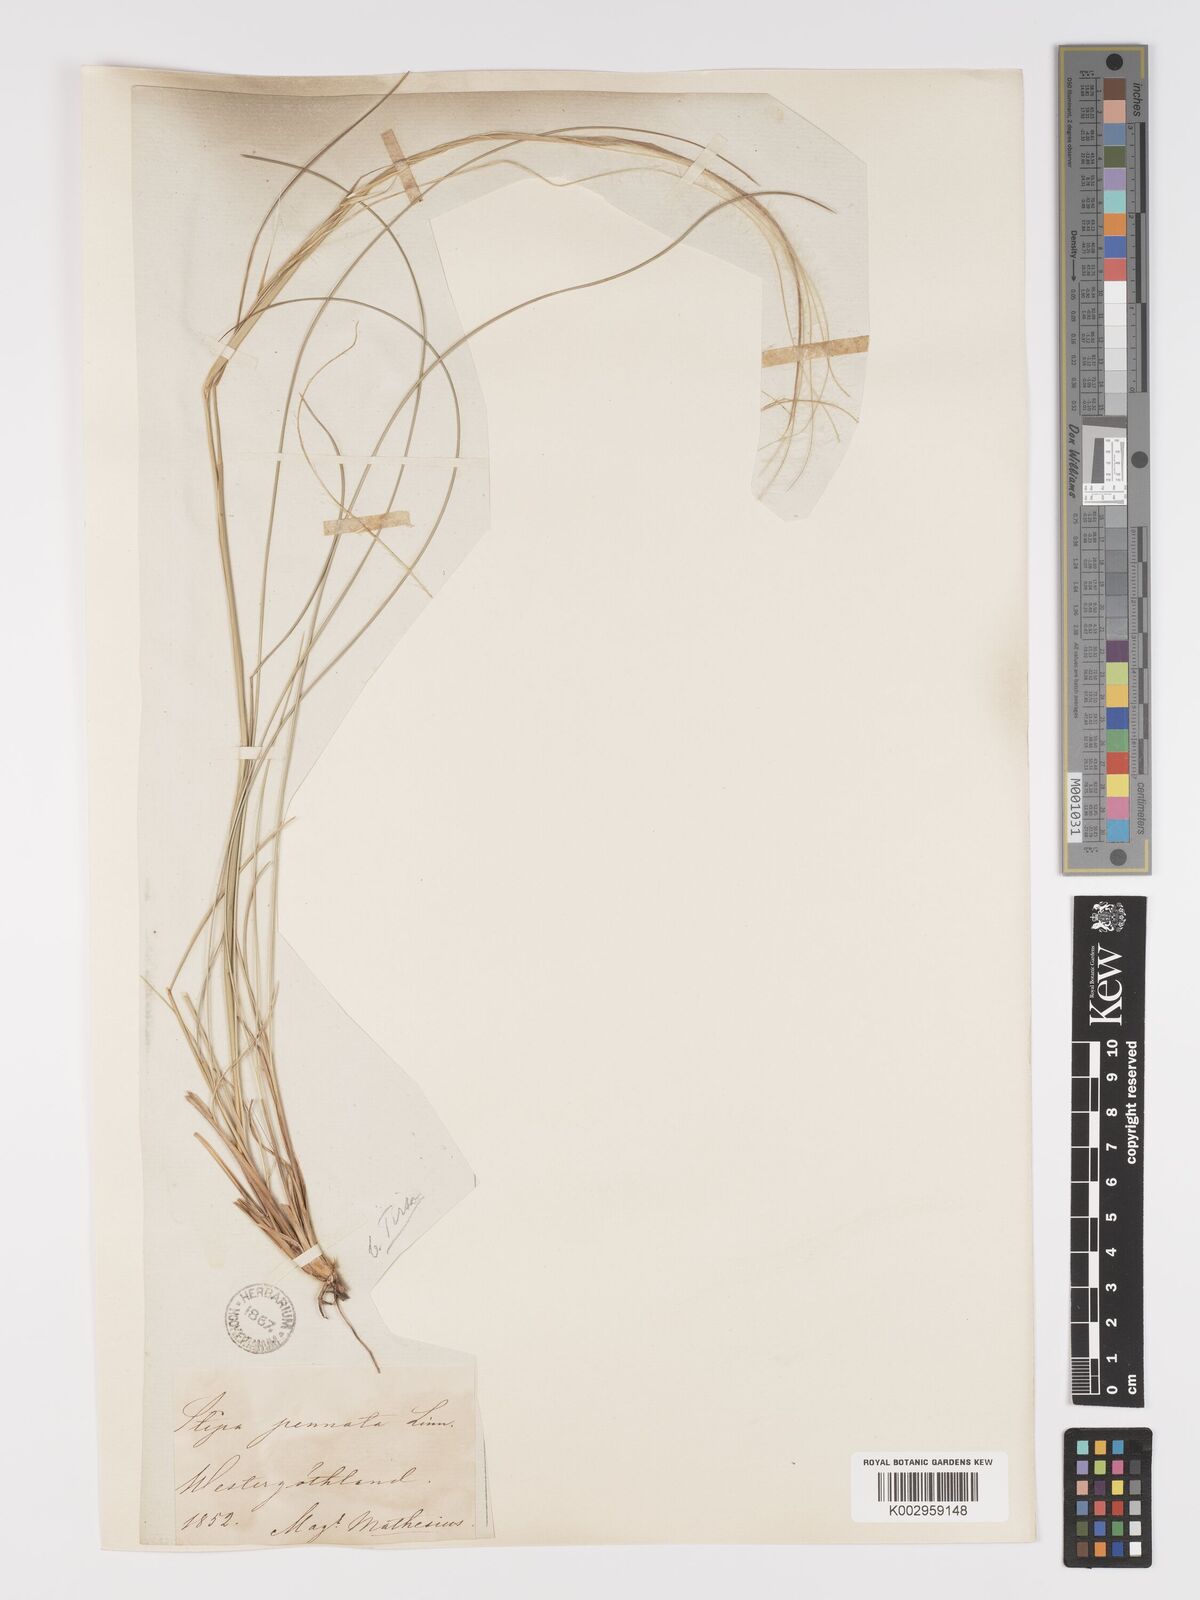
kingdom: Plantae
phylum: Tracheophyta
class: Liliopsida
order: Poales
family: Poaceae
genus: Stipa
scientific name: Stipa pennata
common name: European feather grass
